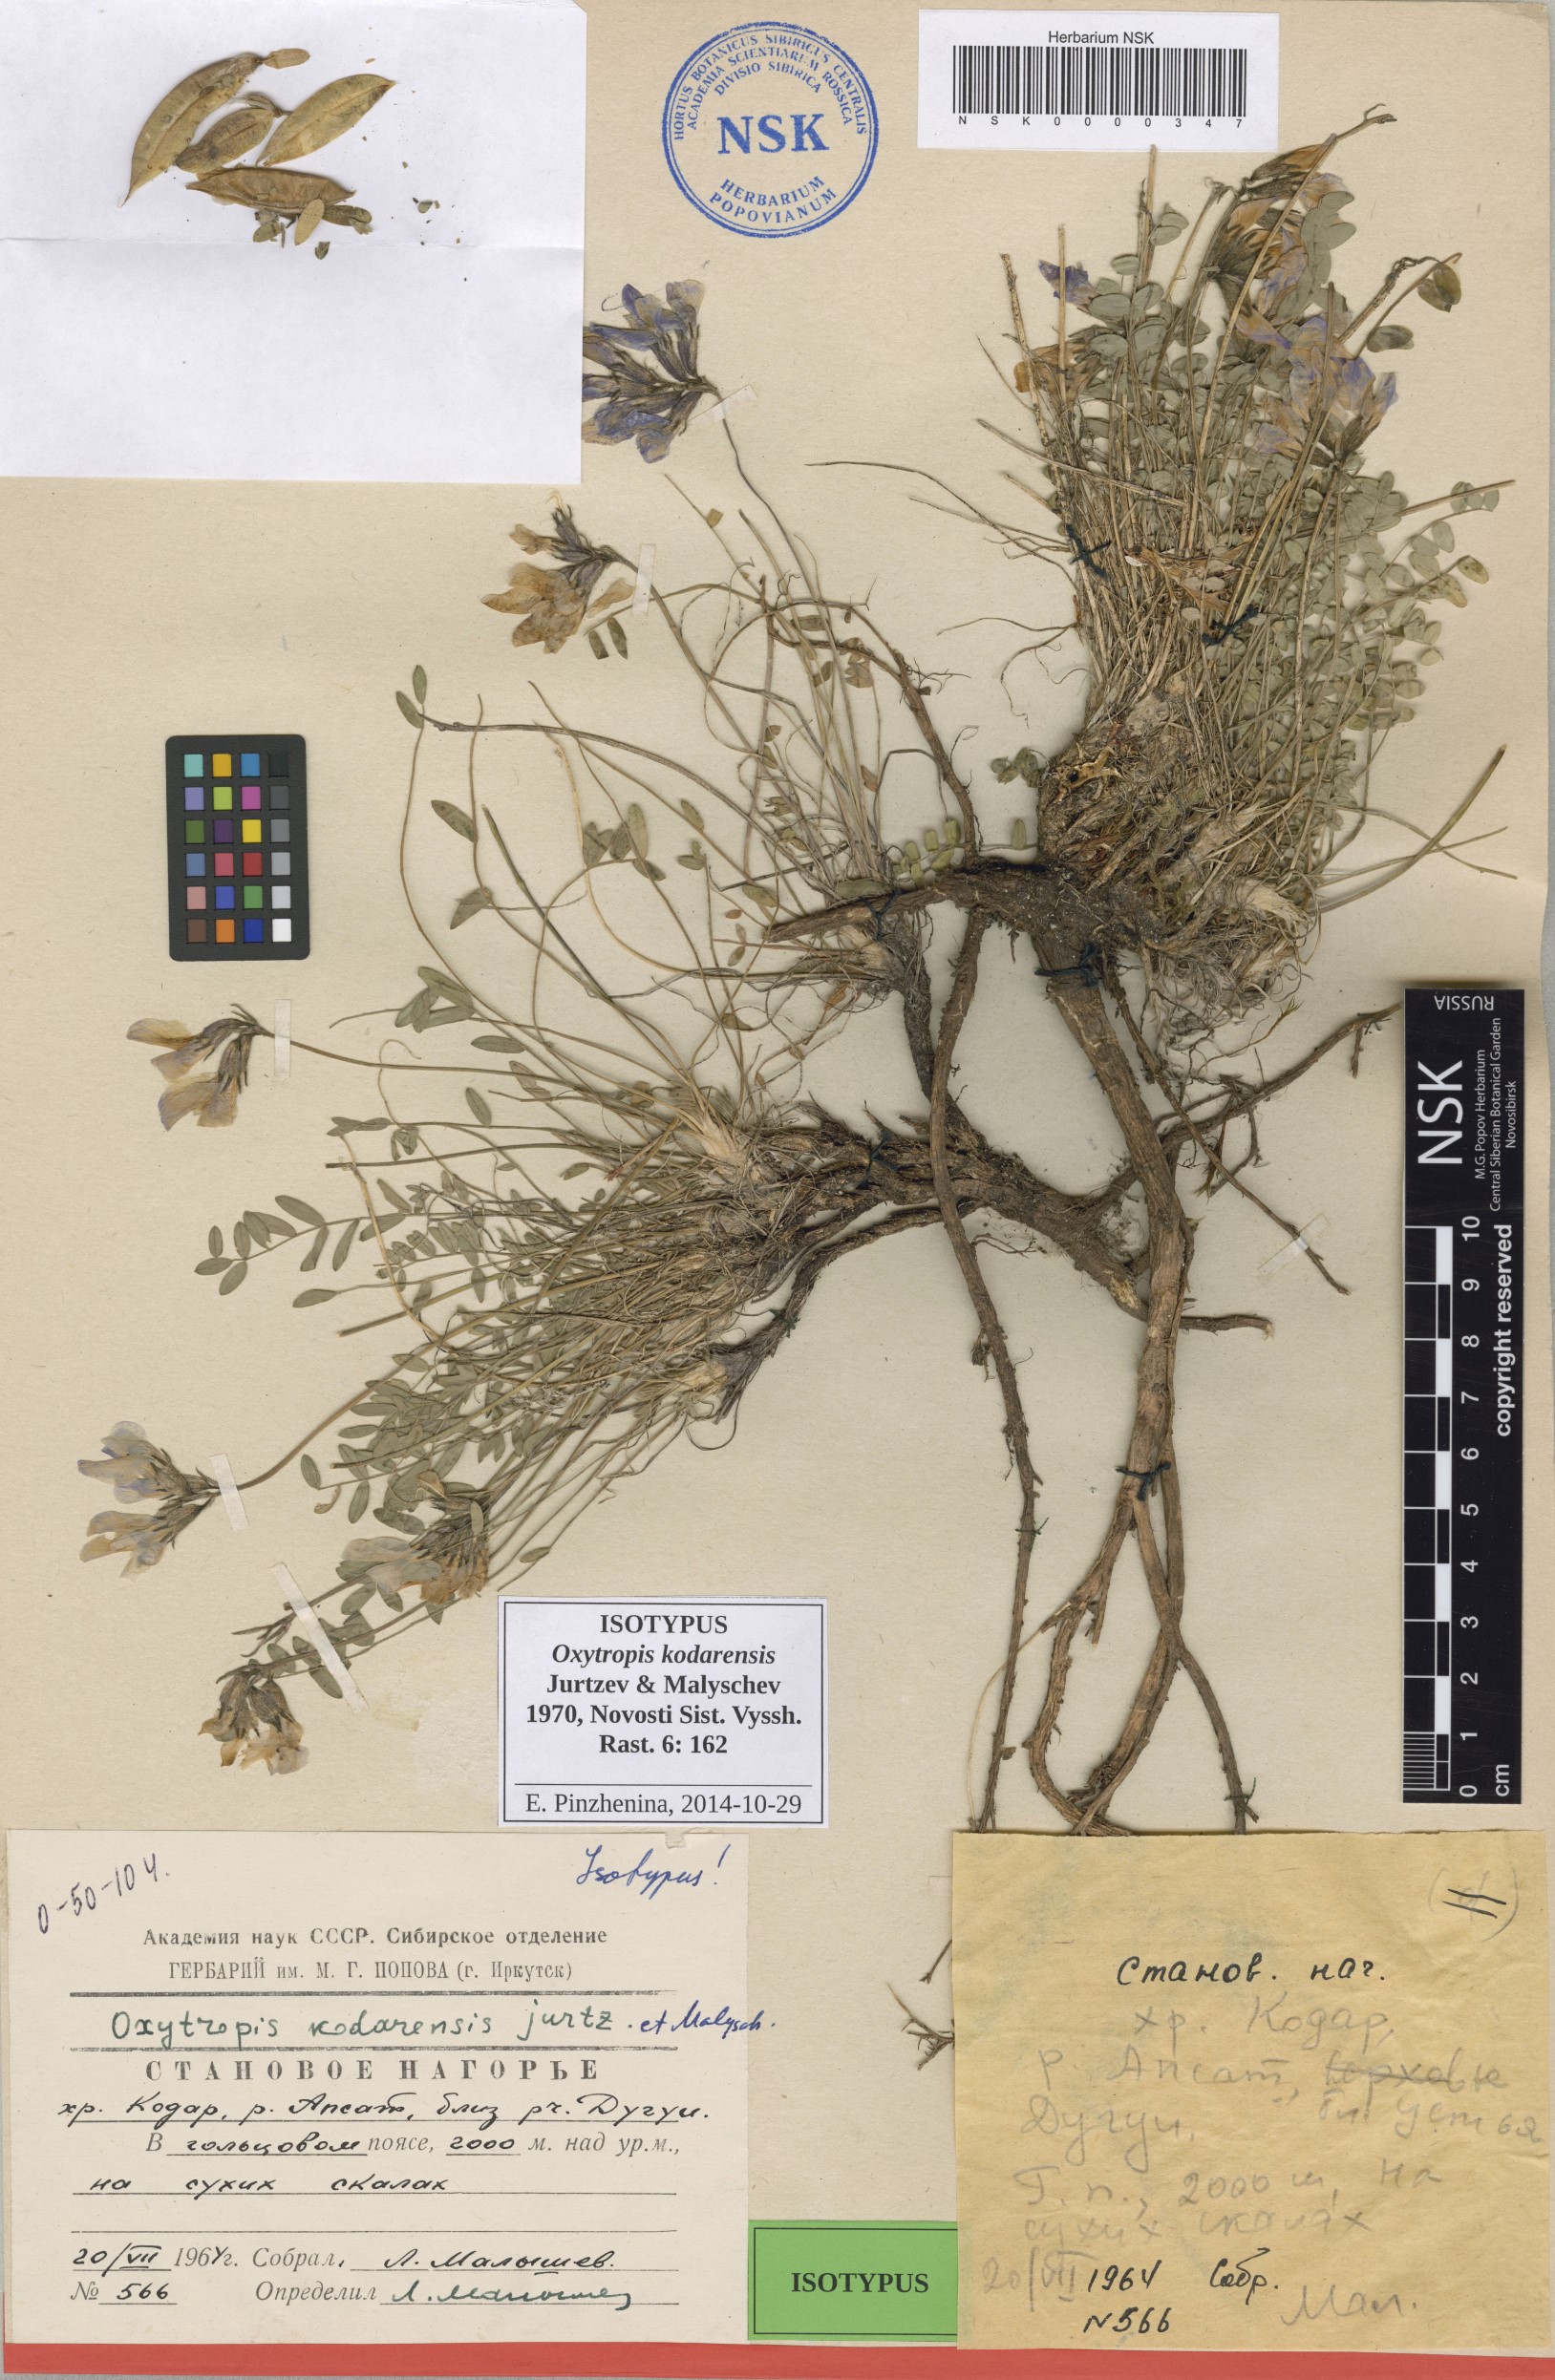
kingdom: Plantae
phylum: Tracheophyta
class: Magnoliopsida
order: Fabales
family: Fabaceae
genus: Oxytropis
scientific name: Oxytropis kodarensis
